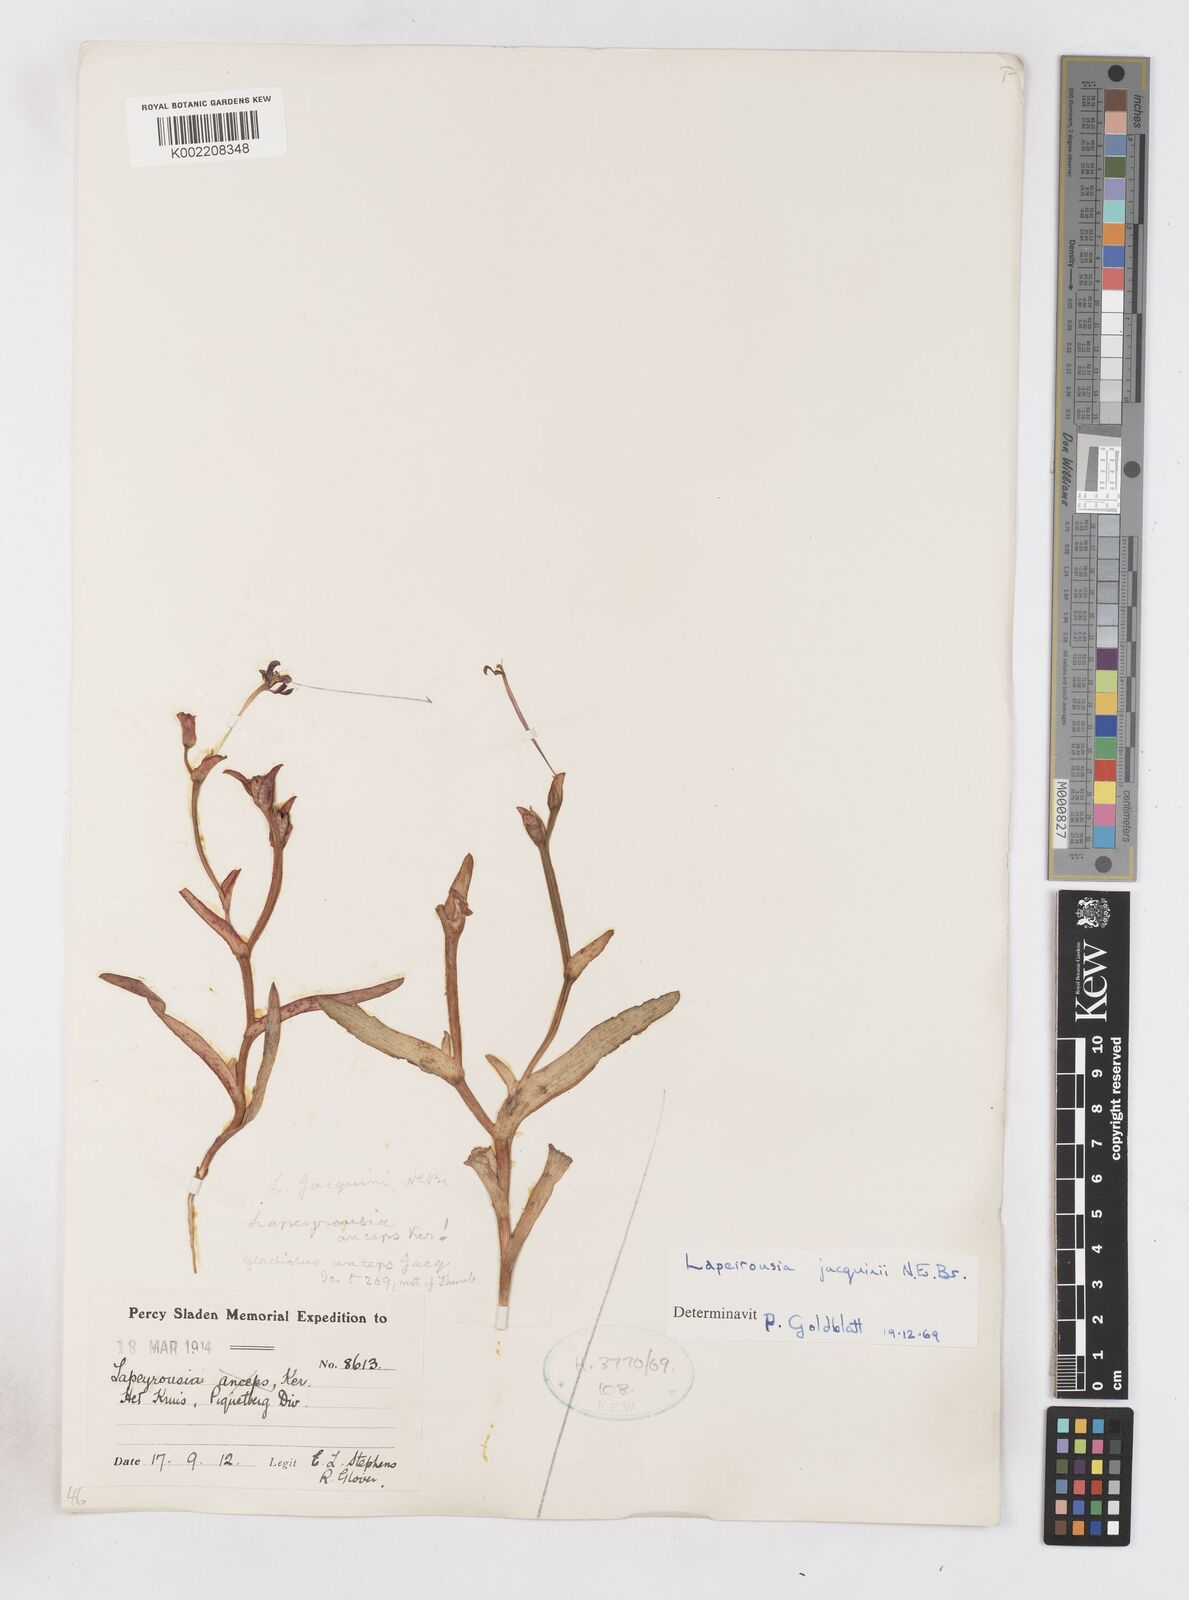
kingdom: Plantae
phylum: Tracheophyta
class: Liliopsida
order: Asparagales
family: Iridaceae
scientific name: Iridaceae
